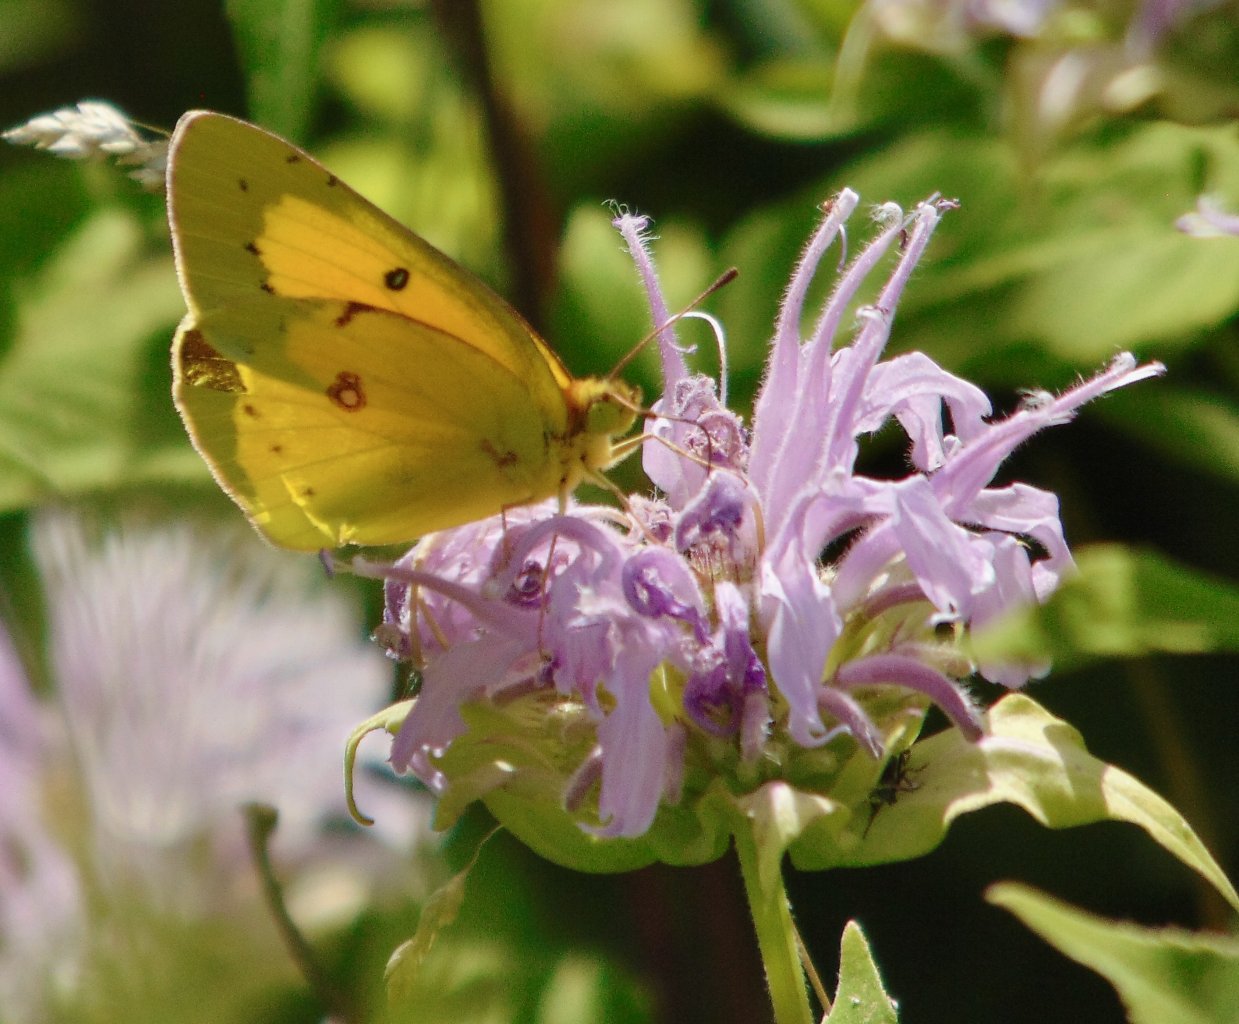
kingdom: Animalia
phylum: Arthropoda
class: Insecta
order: Lepidoptera
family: Pieridae
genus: Colias
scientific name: Colias eurytheme
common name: Orange Sulphur
